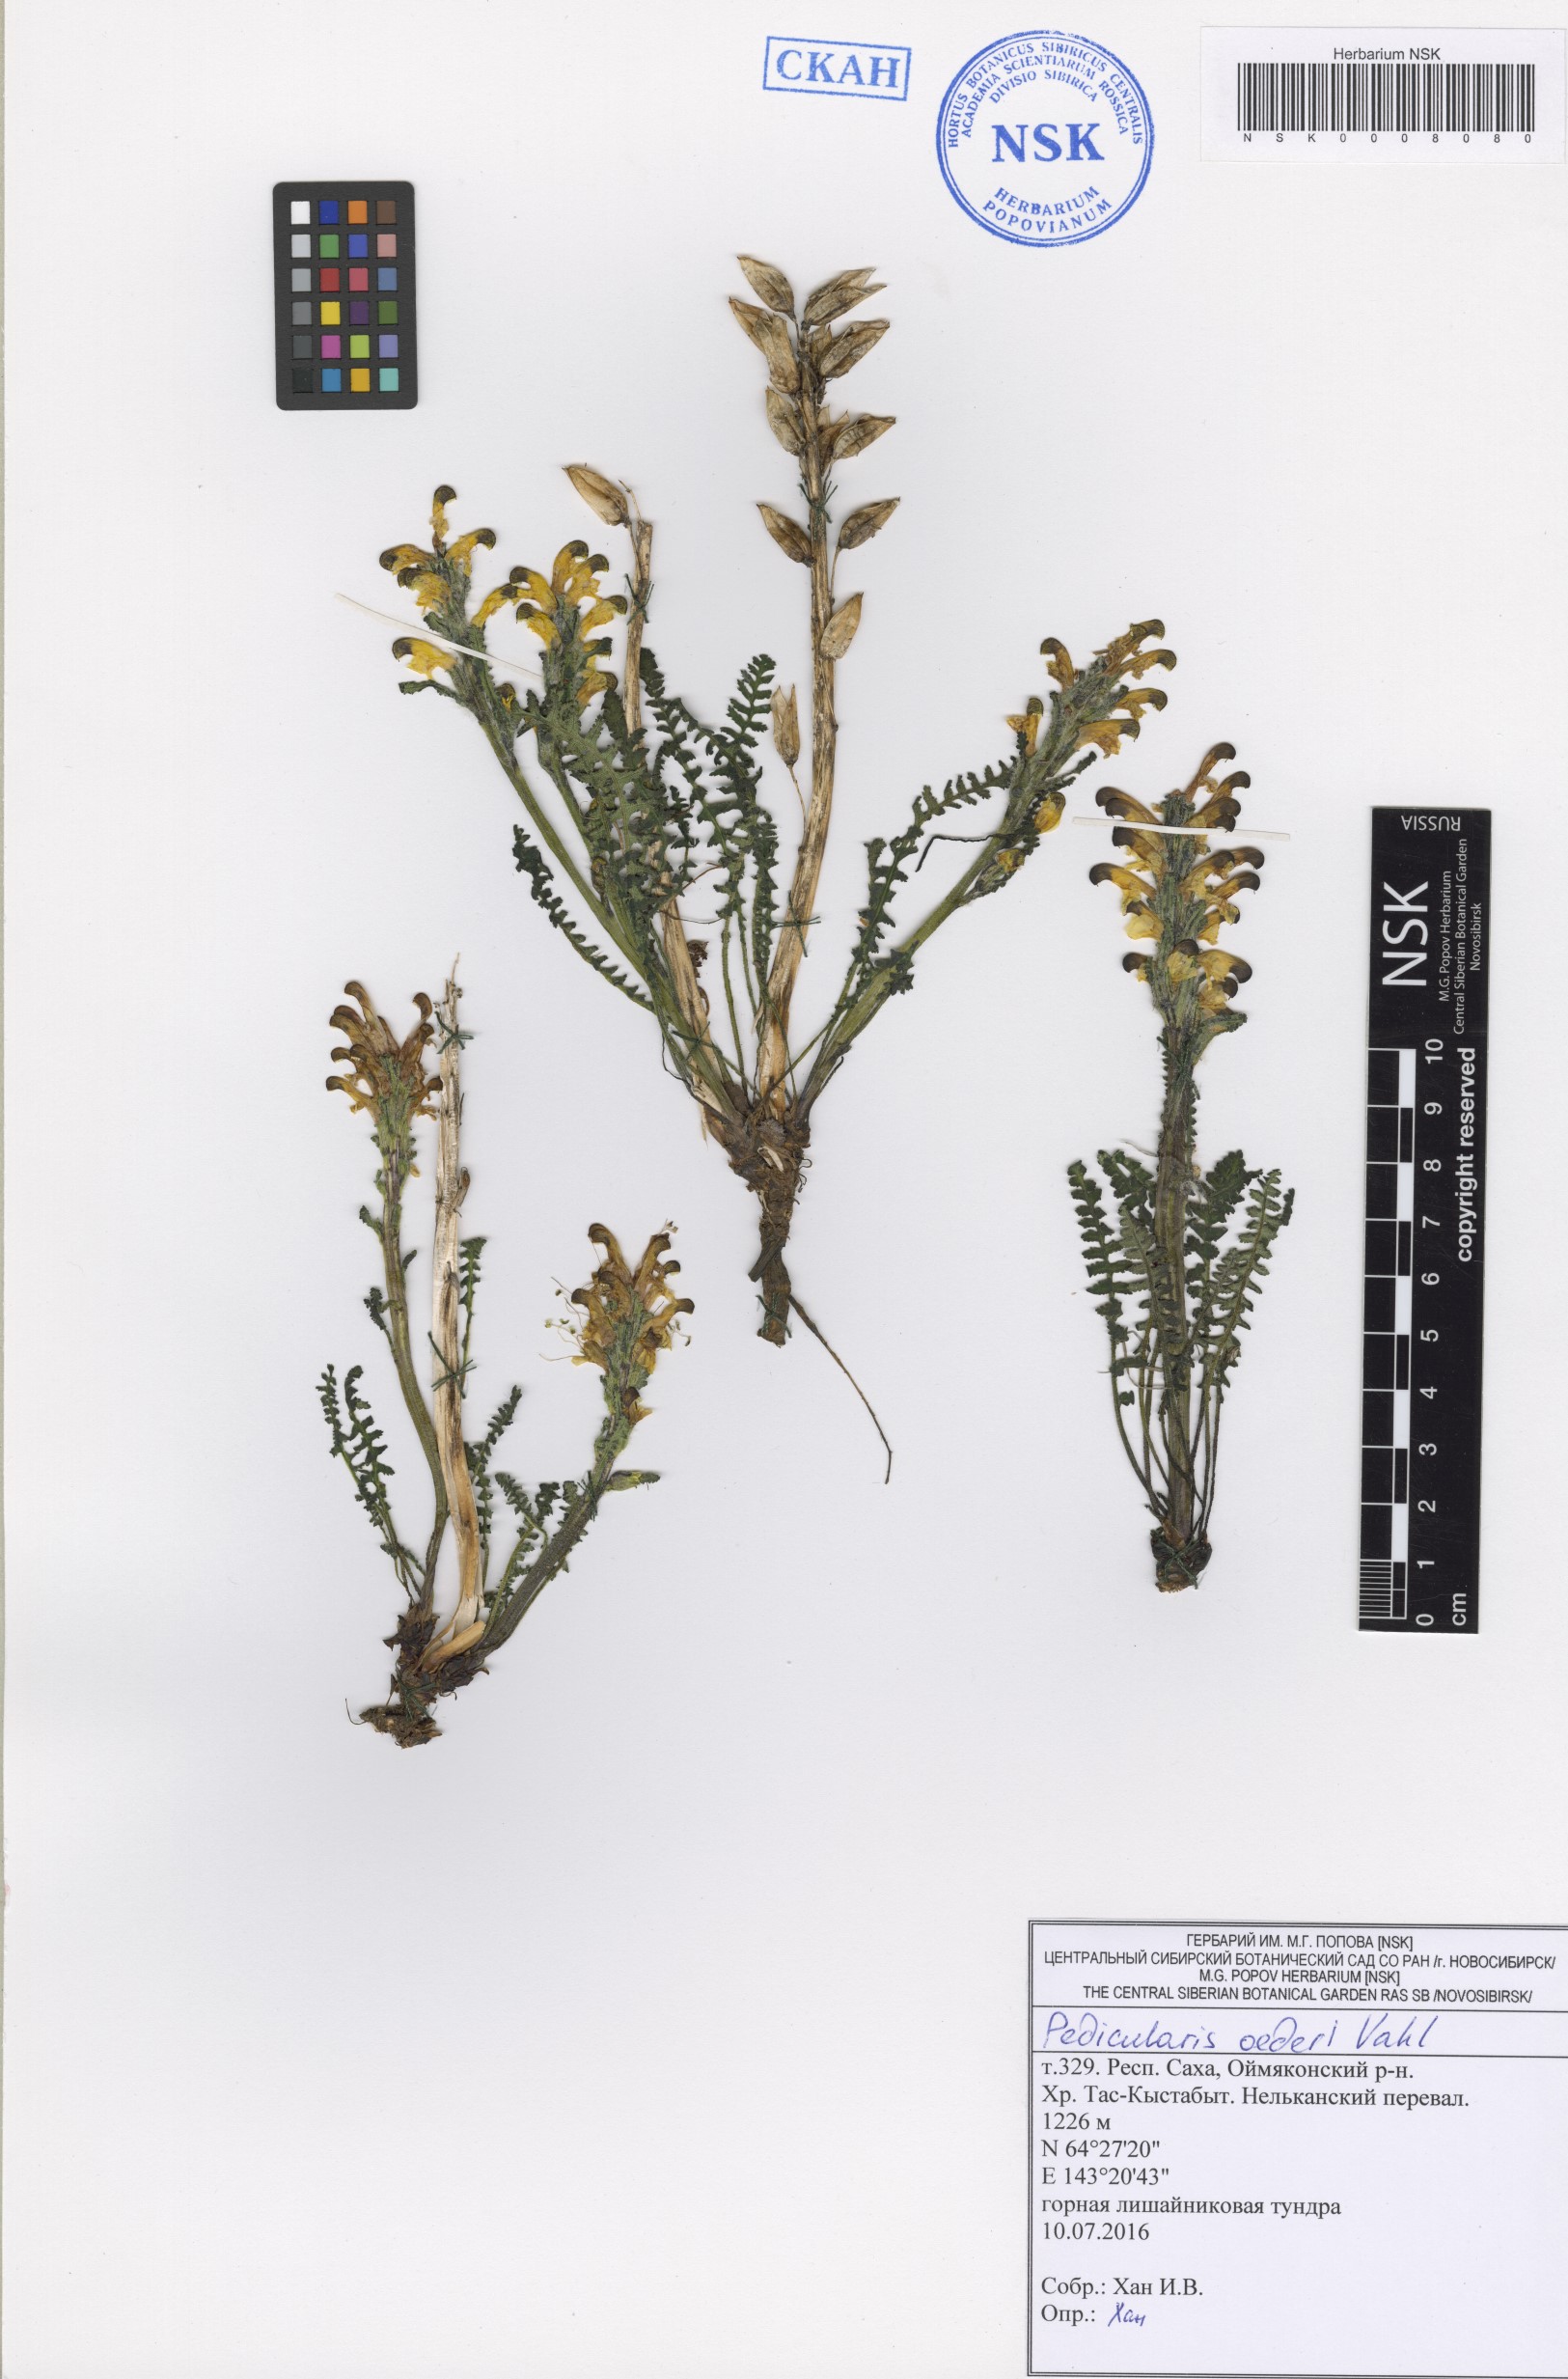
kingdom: Plantae
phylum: Tracheophyta
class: Magnoliopsida
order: Lamiales
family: Orobanchaceae
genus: Pedicularis
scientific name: Pedicularis oederi
